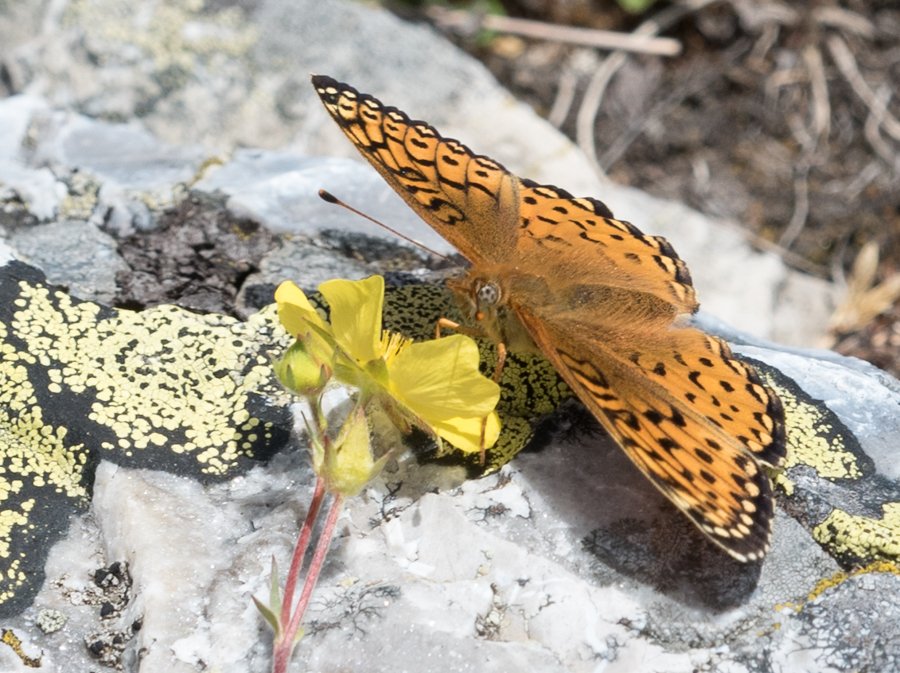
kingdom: Animalia
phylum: Arthropoda
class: Insecta
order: Lepidoptera
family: Nymphalidae
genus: Speyeria
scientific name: Speyeria atlantis
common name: Atlantis Fritillary
